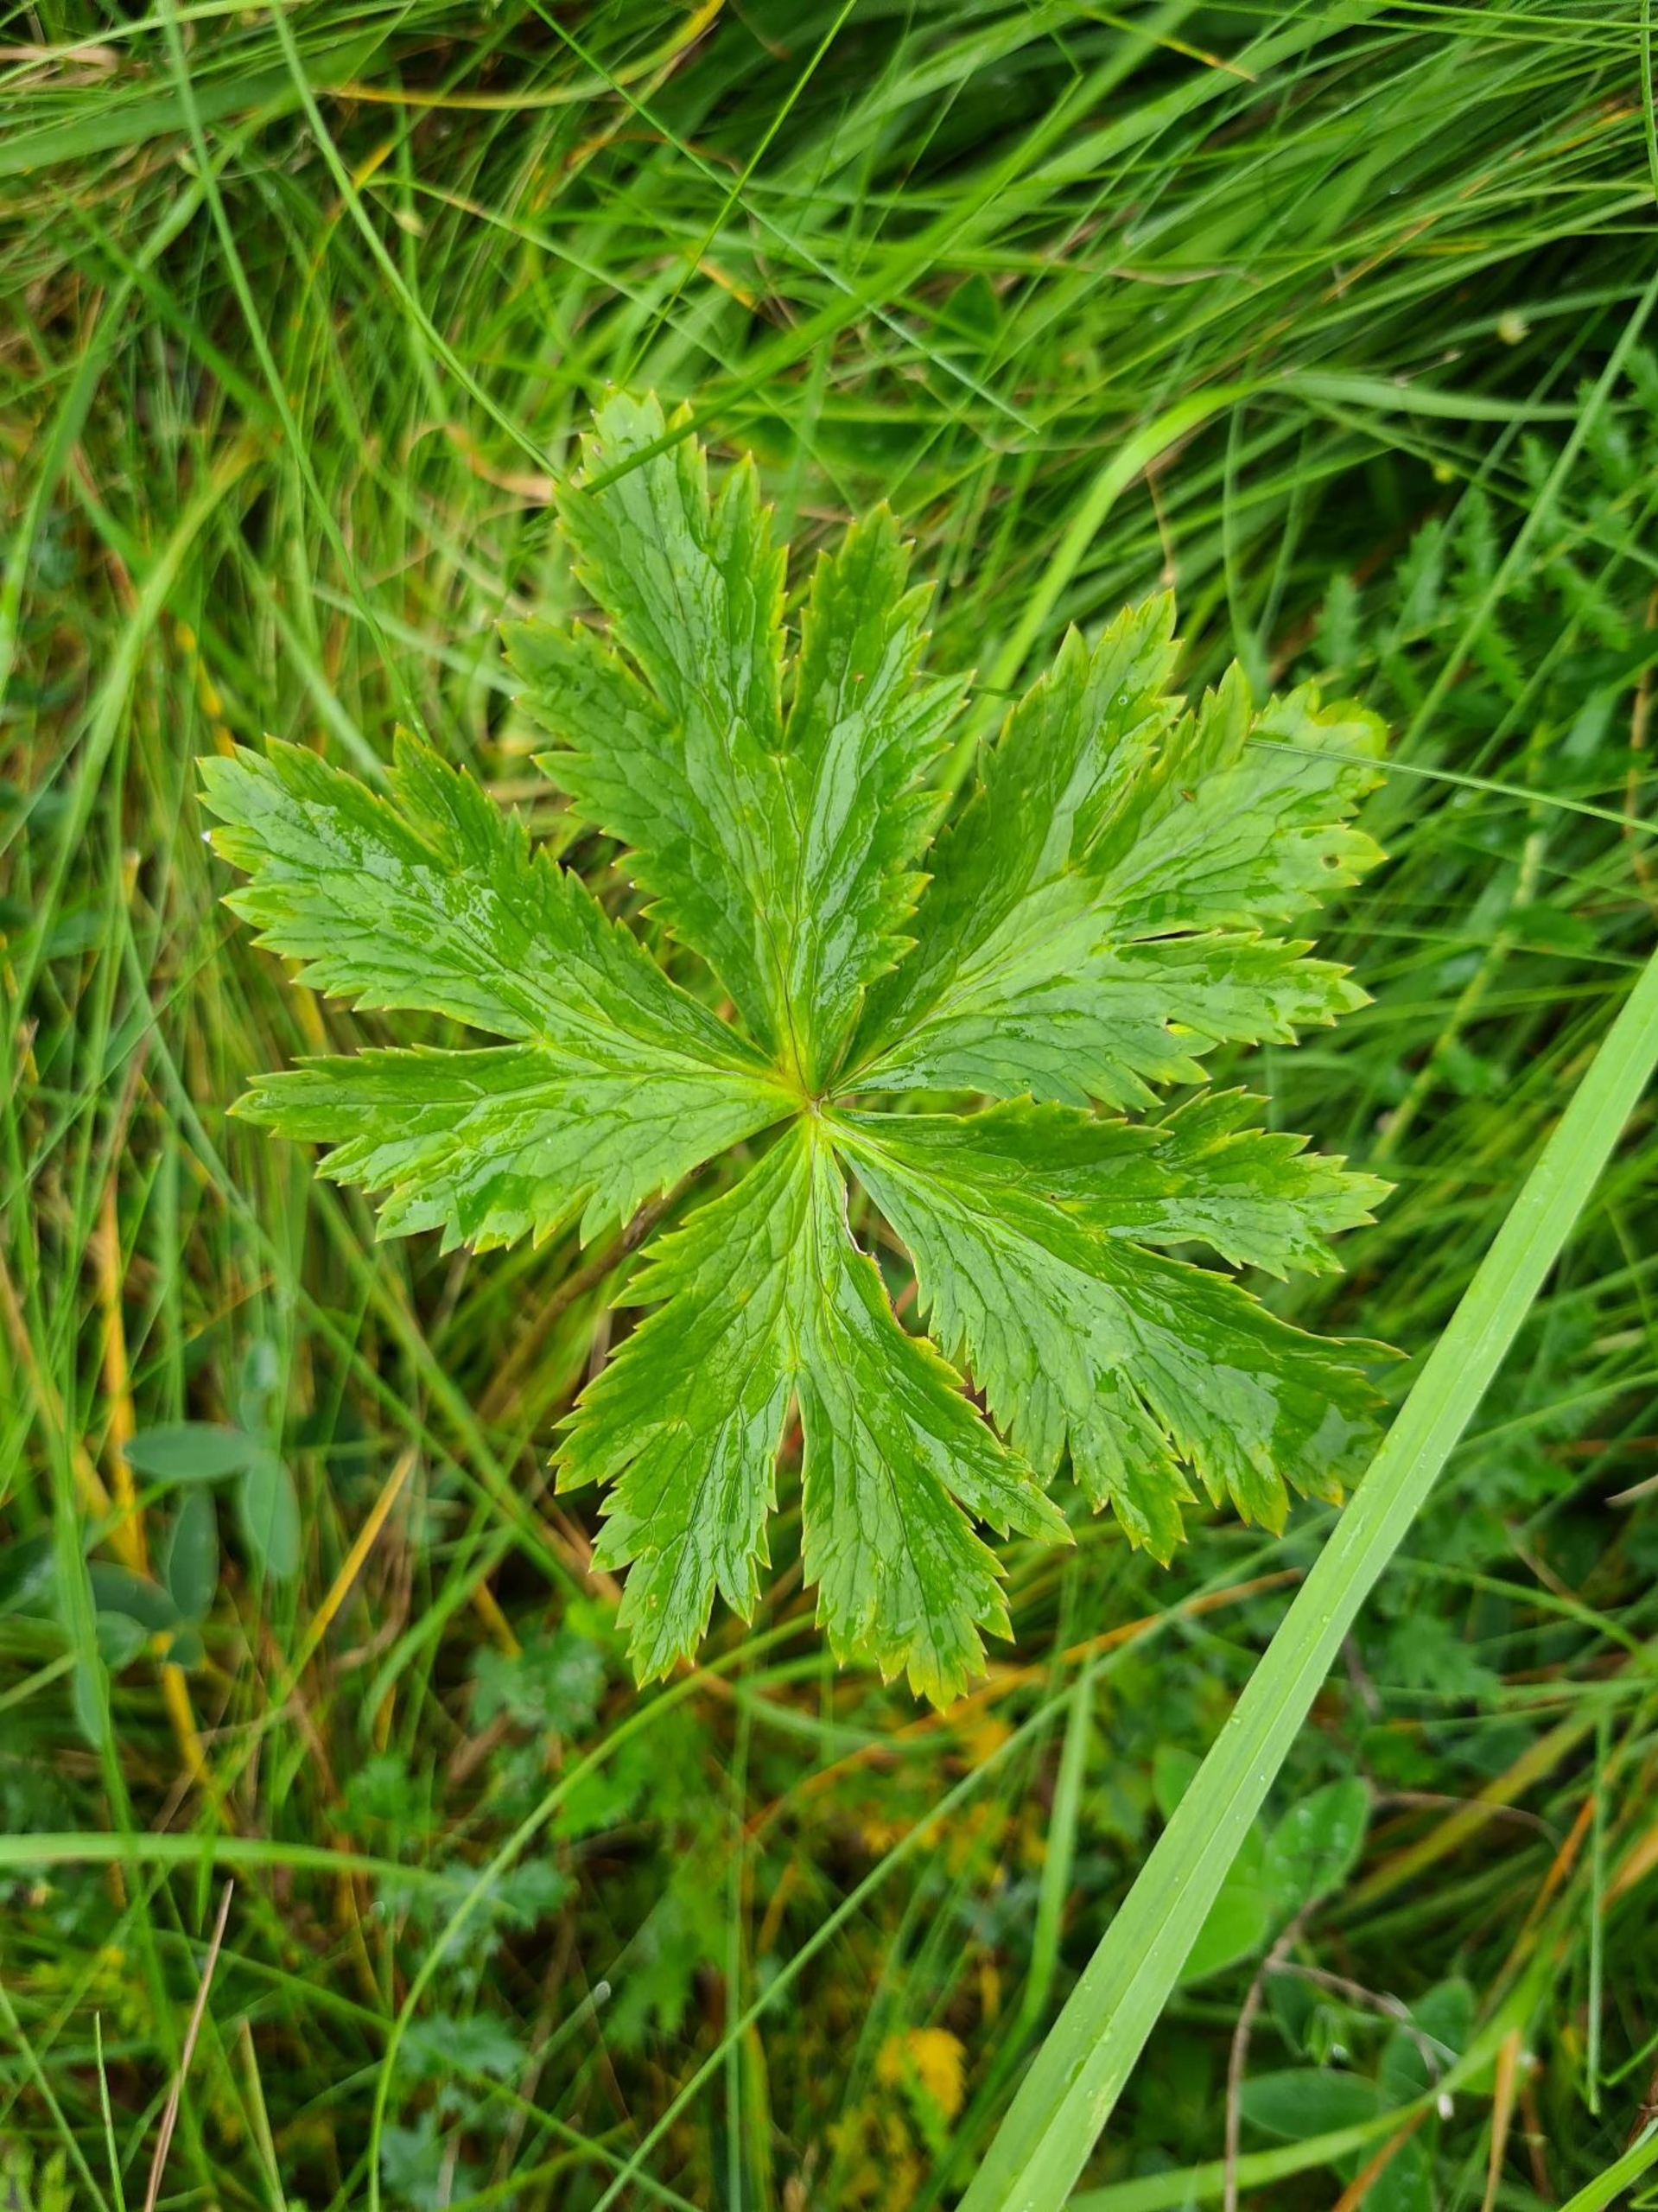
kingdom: Plantae
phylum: Tracheophyta
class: Magnoliopsida
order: Ranunculales
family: Ranunculaceae
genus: Trollius
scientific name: Trollius europaeus
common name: Engblomme
